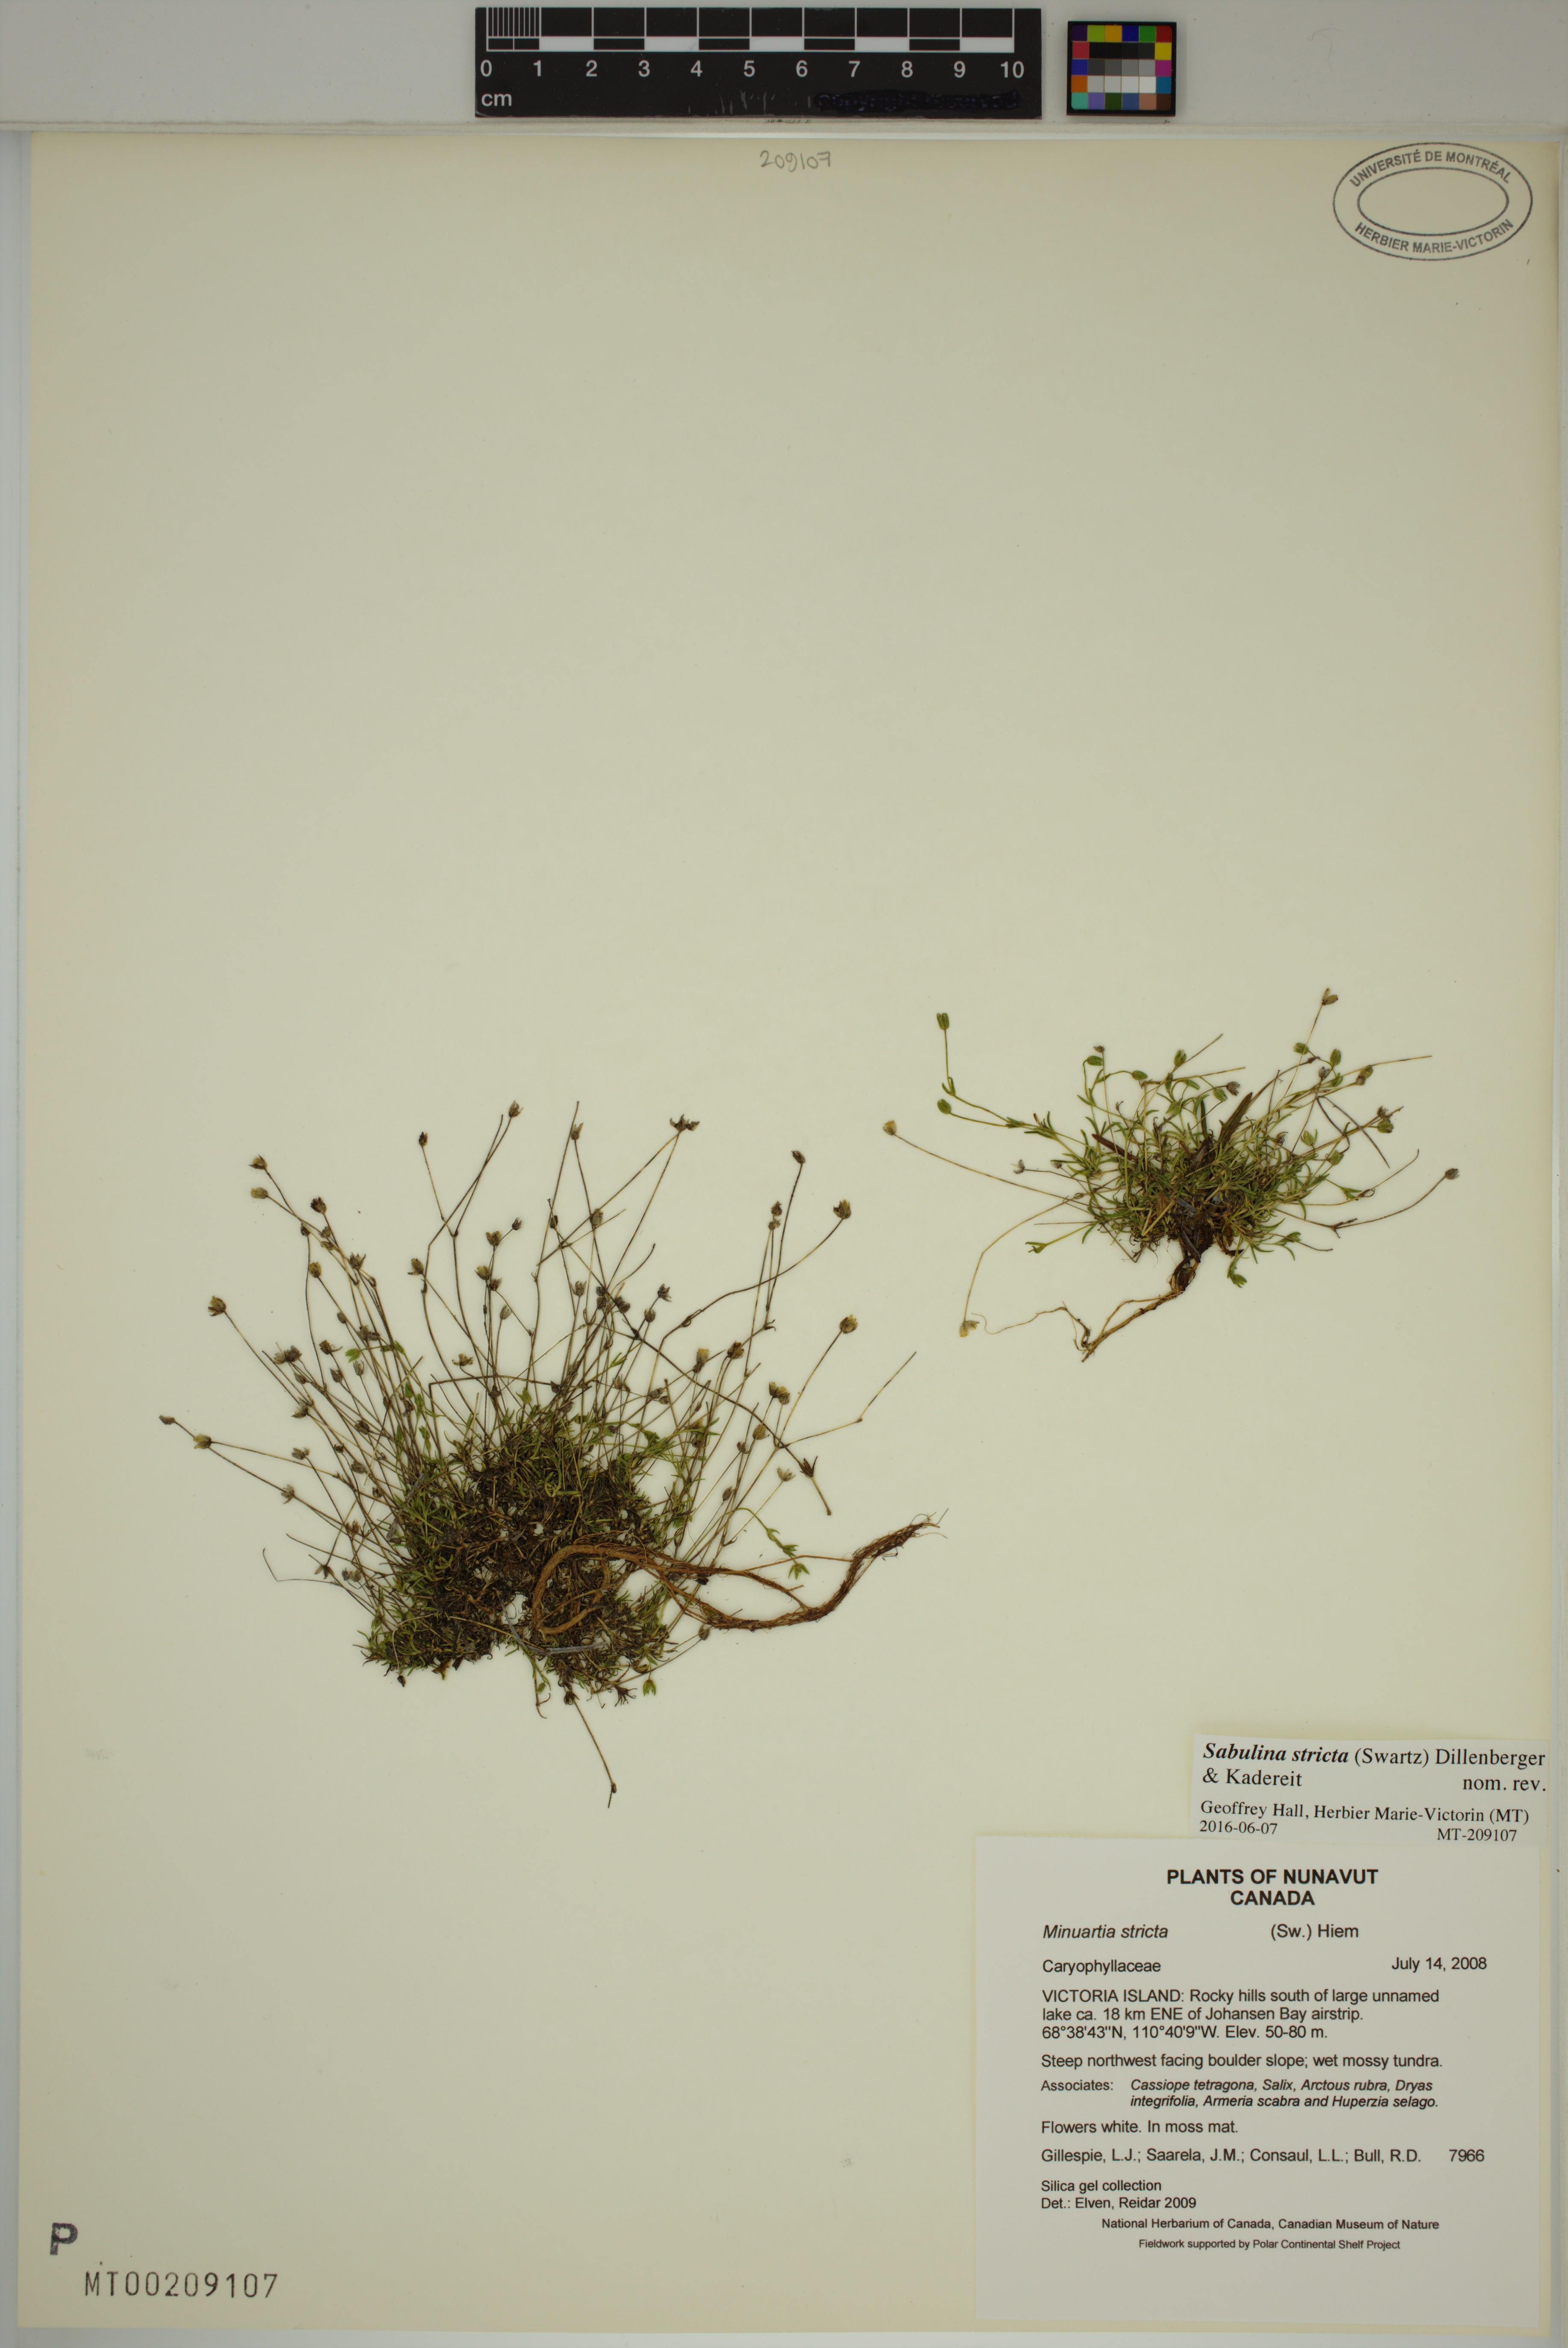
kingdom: Plantae
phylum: Tracheophyta
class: Magnoliopsida
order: Caryophyllales
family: Caryophyllaceae
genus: Sabulina
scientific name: Sabulina stricta
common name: Bog sandwort
